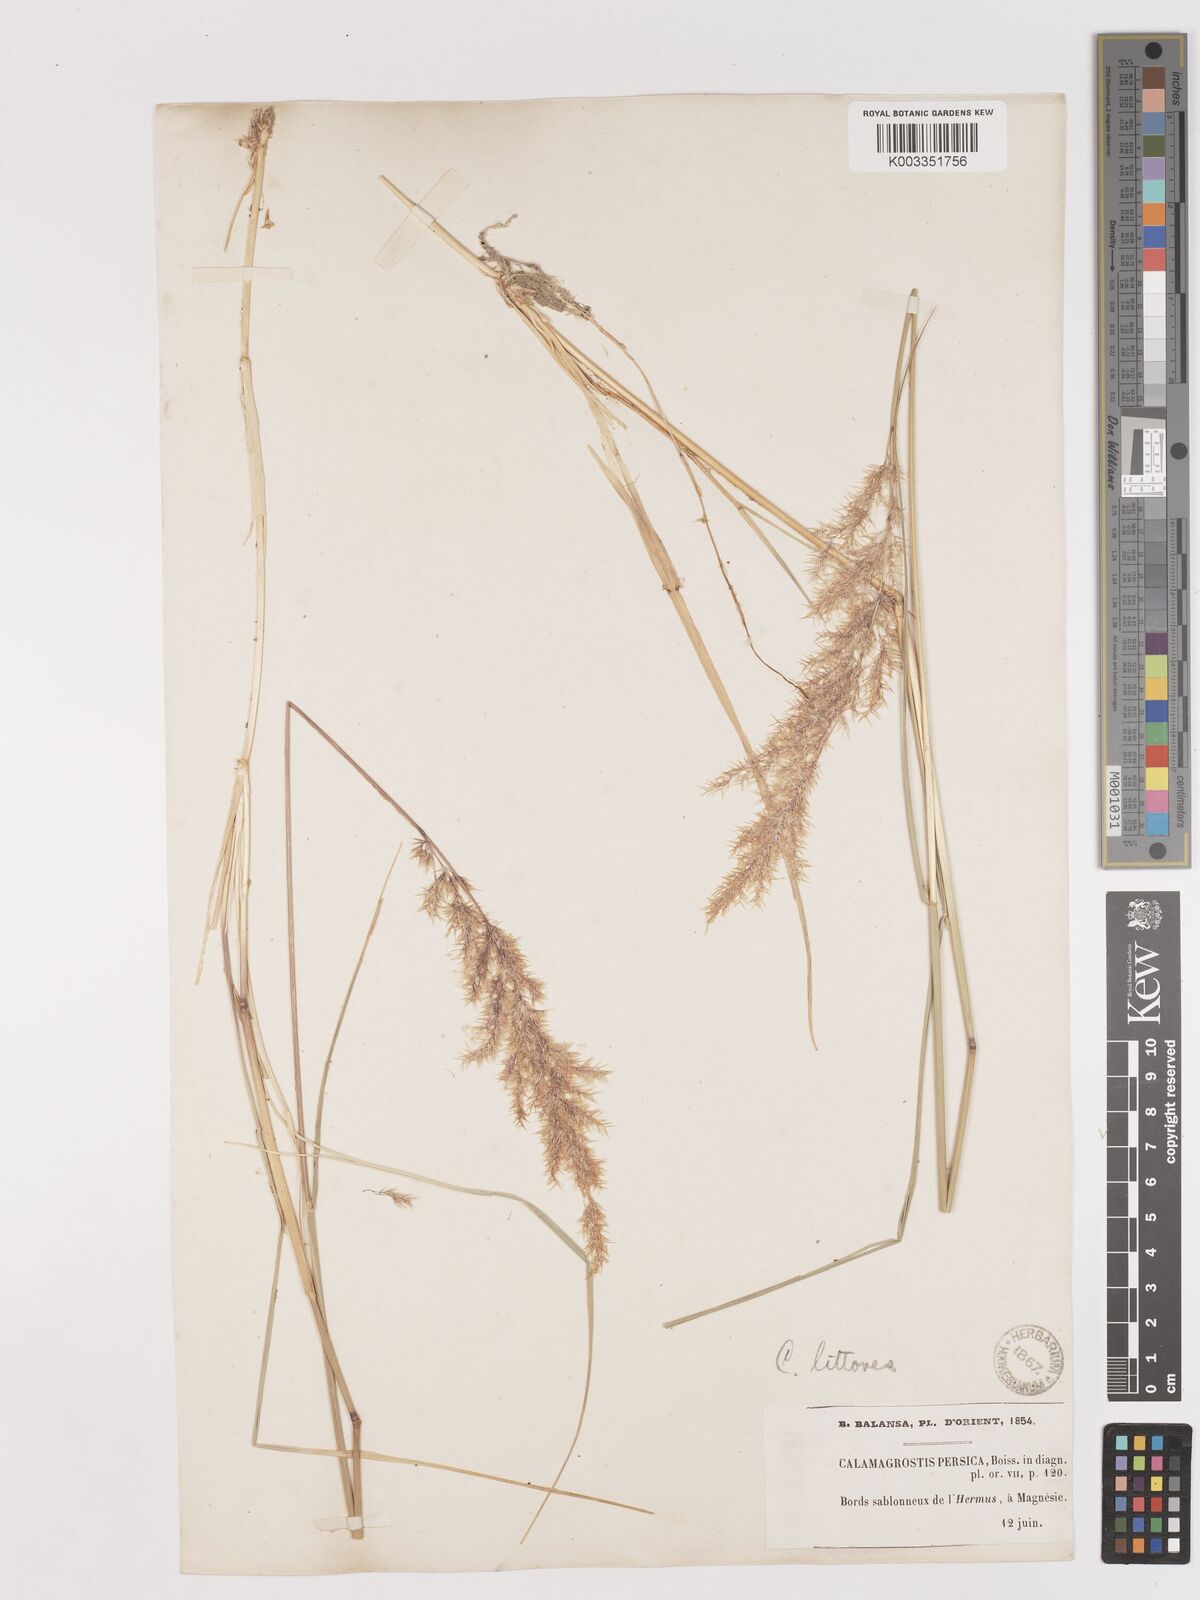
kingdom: Plantae
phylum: Tracheophyta
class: Liliopsida
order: Poales
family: Poaceae
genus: Calamagrostis
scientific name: Calamagrostis pseudophragmites
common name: Coastal small-reed
